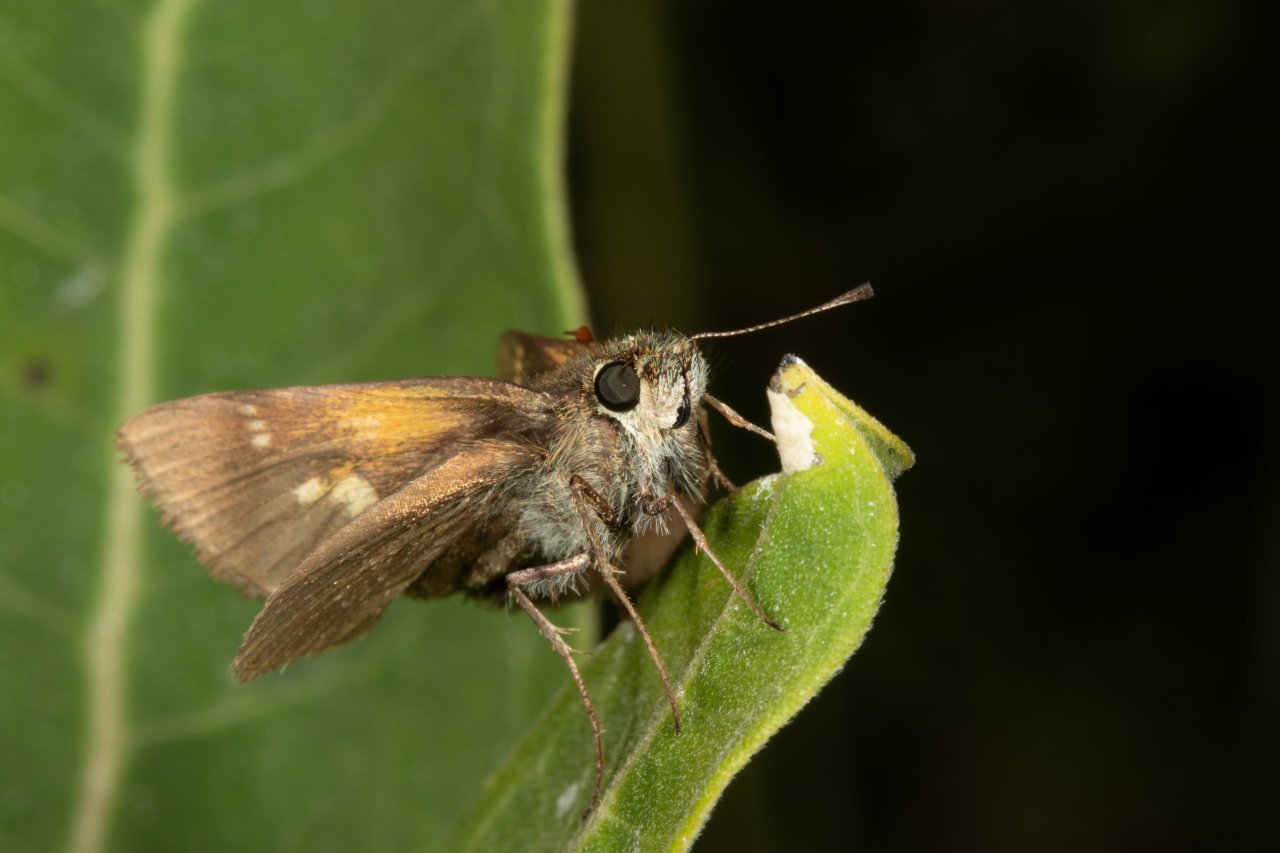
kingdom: Animalia
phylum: Arthropoda
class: Insecta
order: Lepidoptera
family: Hesperiidae
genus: Polites
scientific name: Polites themistocles
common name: Tawny-edged Skipper
